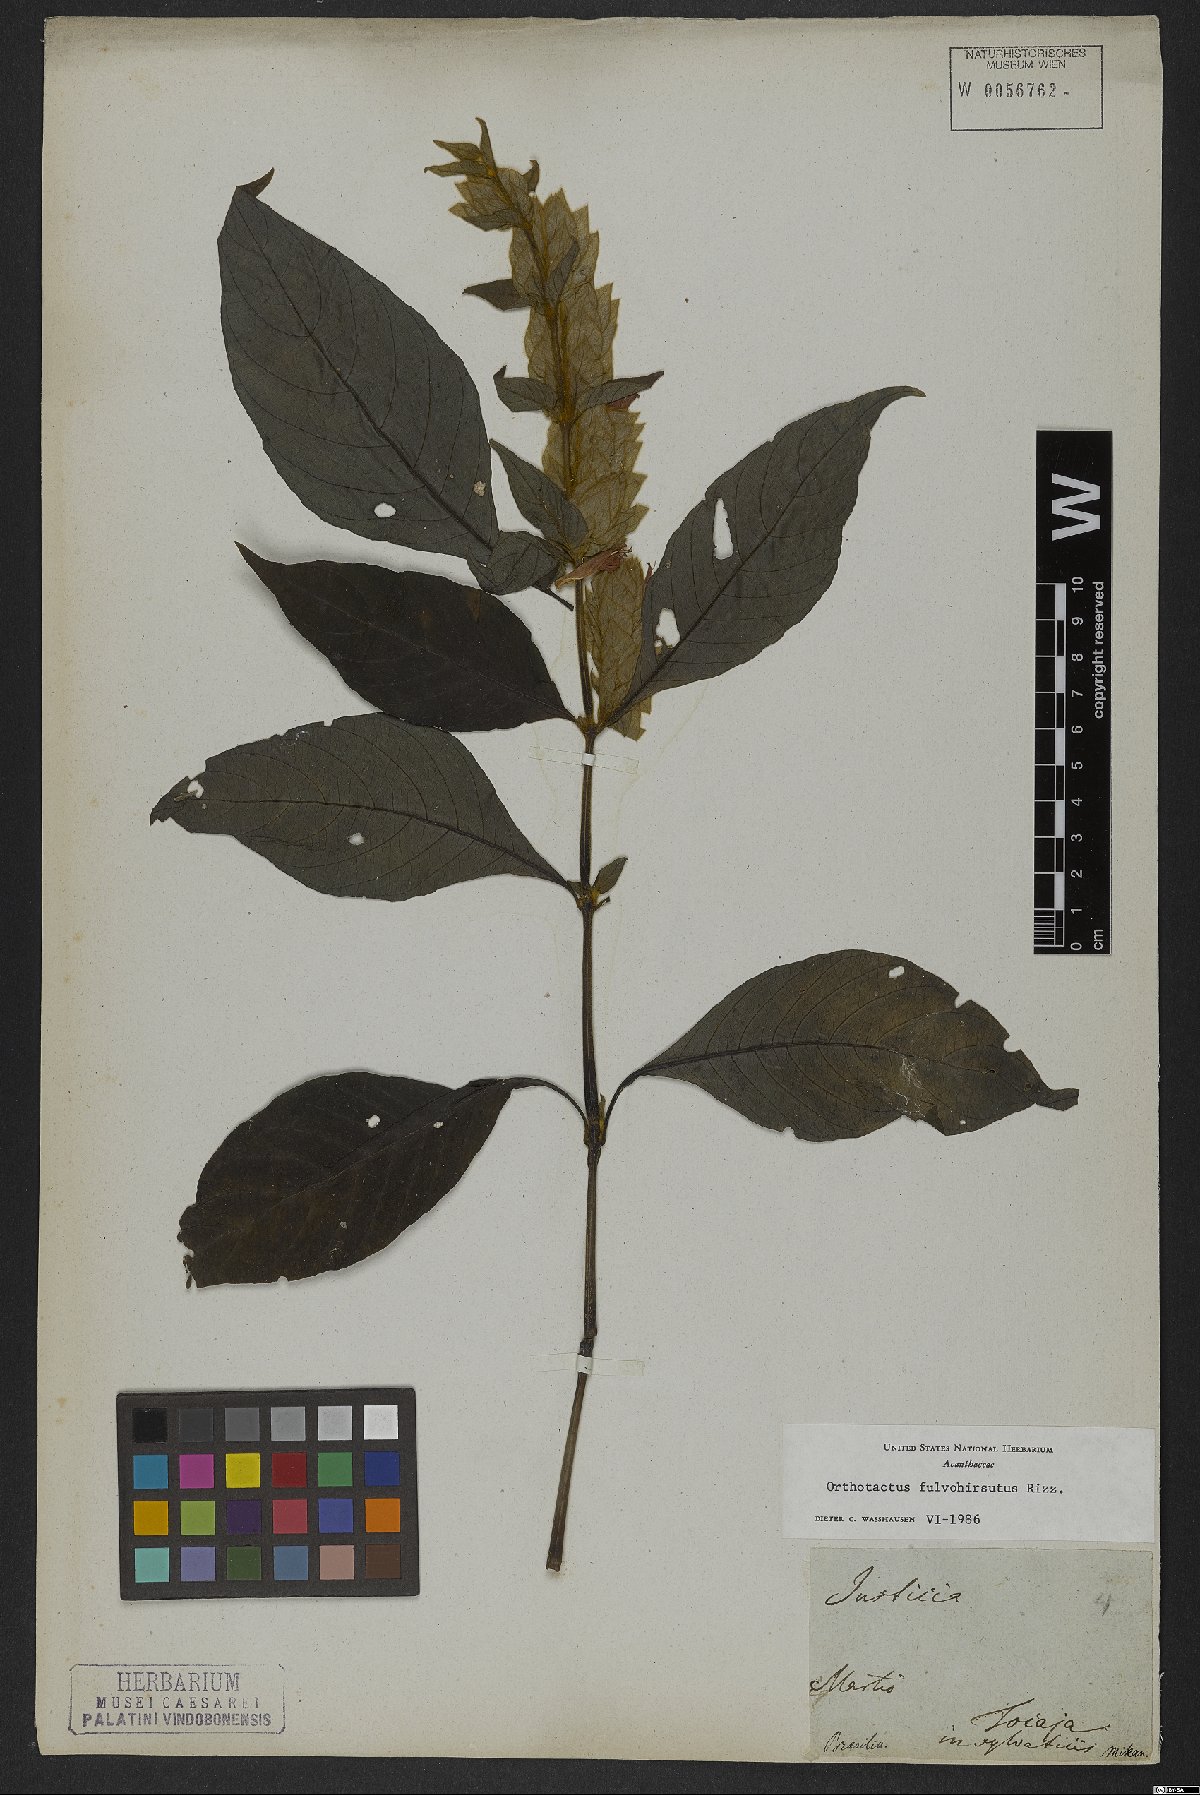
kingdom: Plantae
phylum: Tracheophyta
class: Magnoliopsida
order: Lamiales
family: Acanthaceae
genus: Justicia
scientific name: Justicia fulvohirsuta
